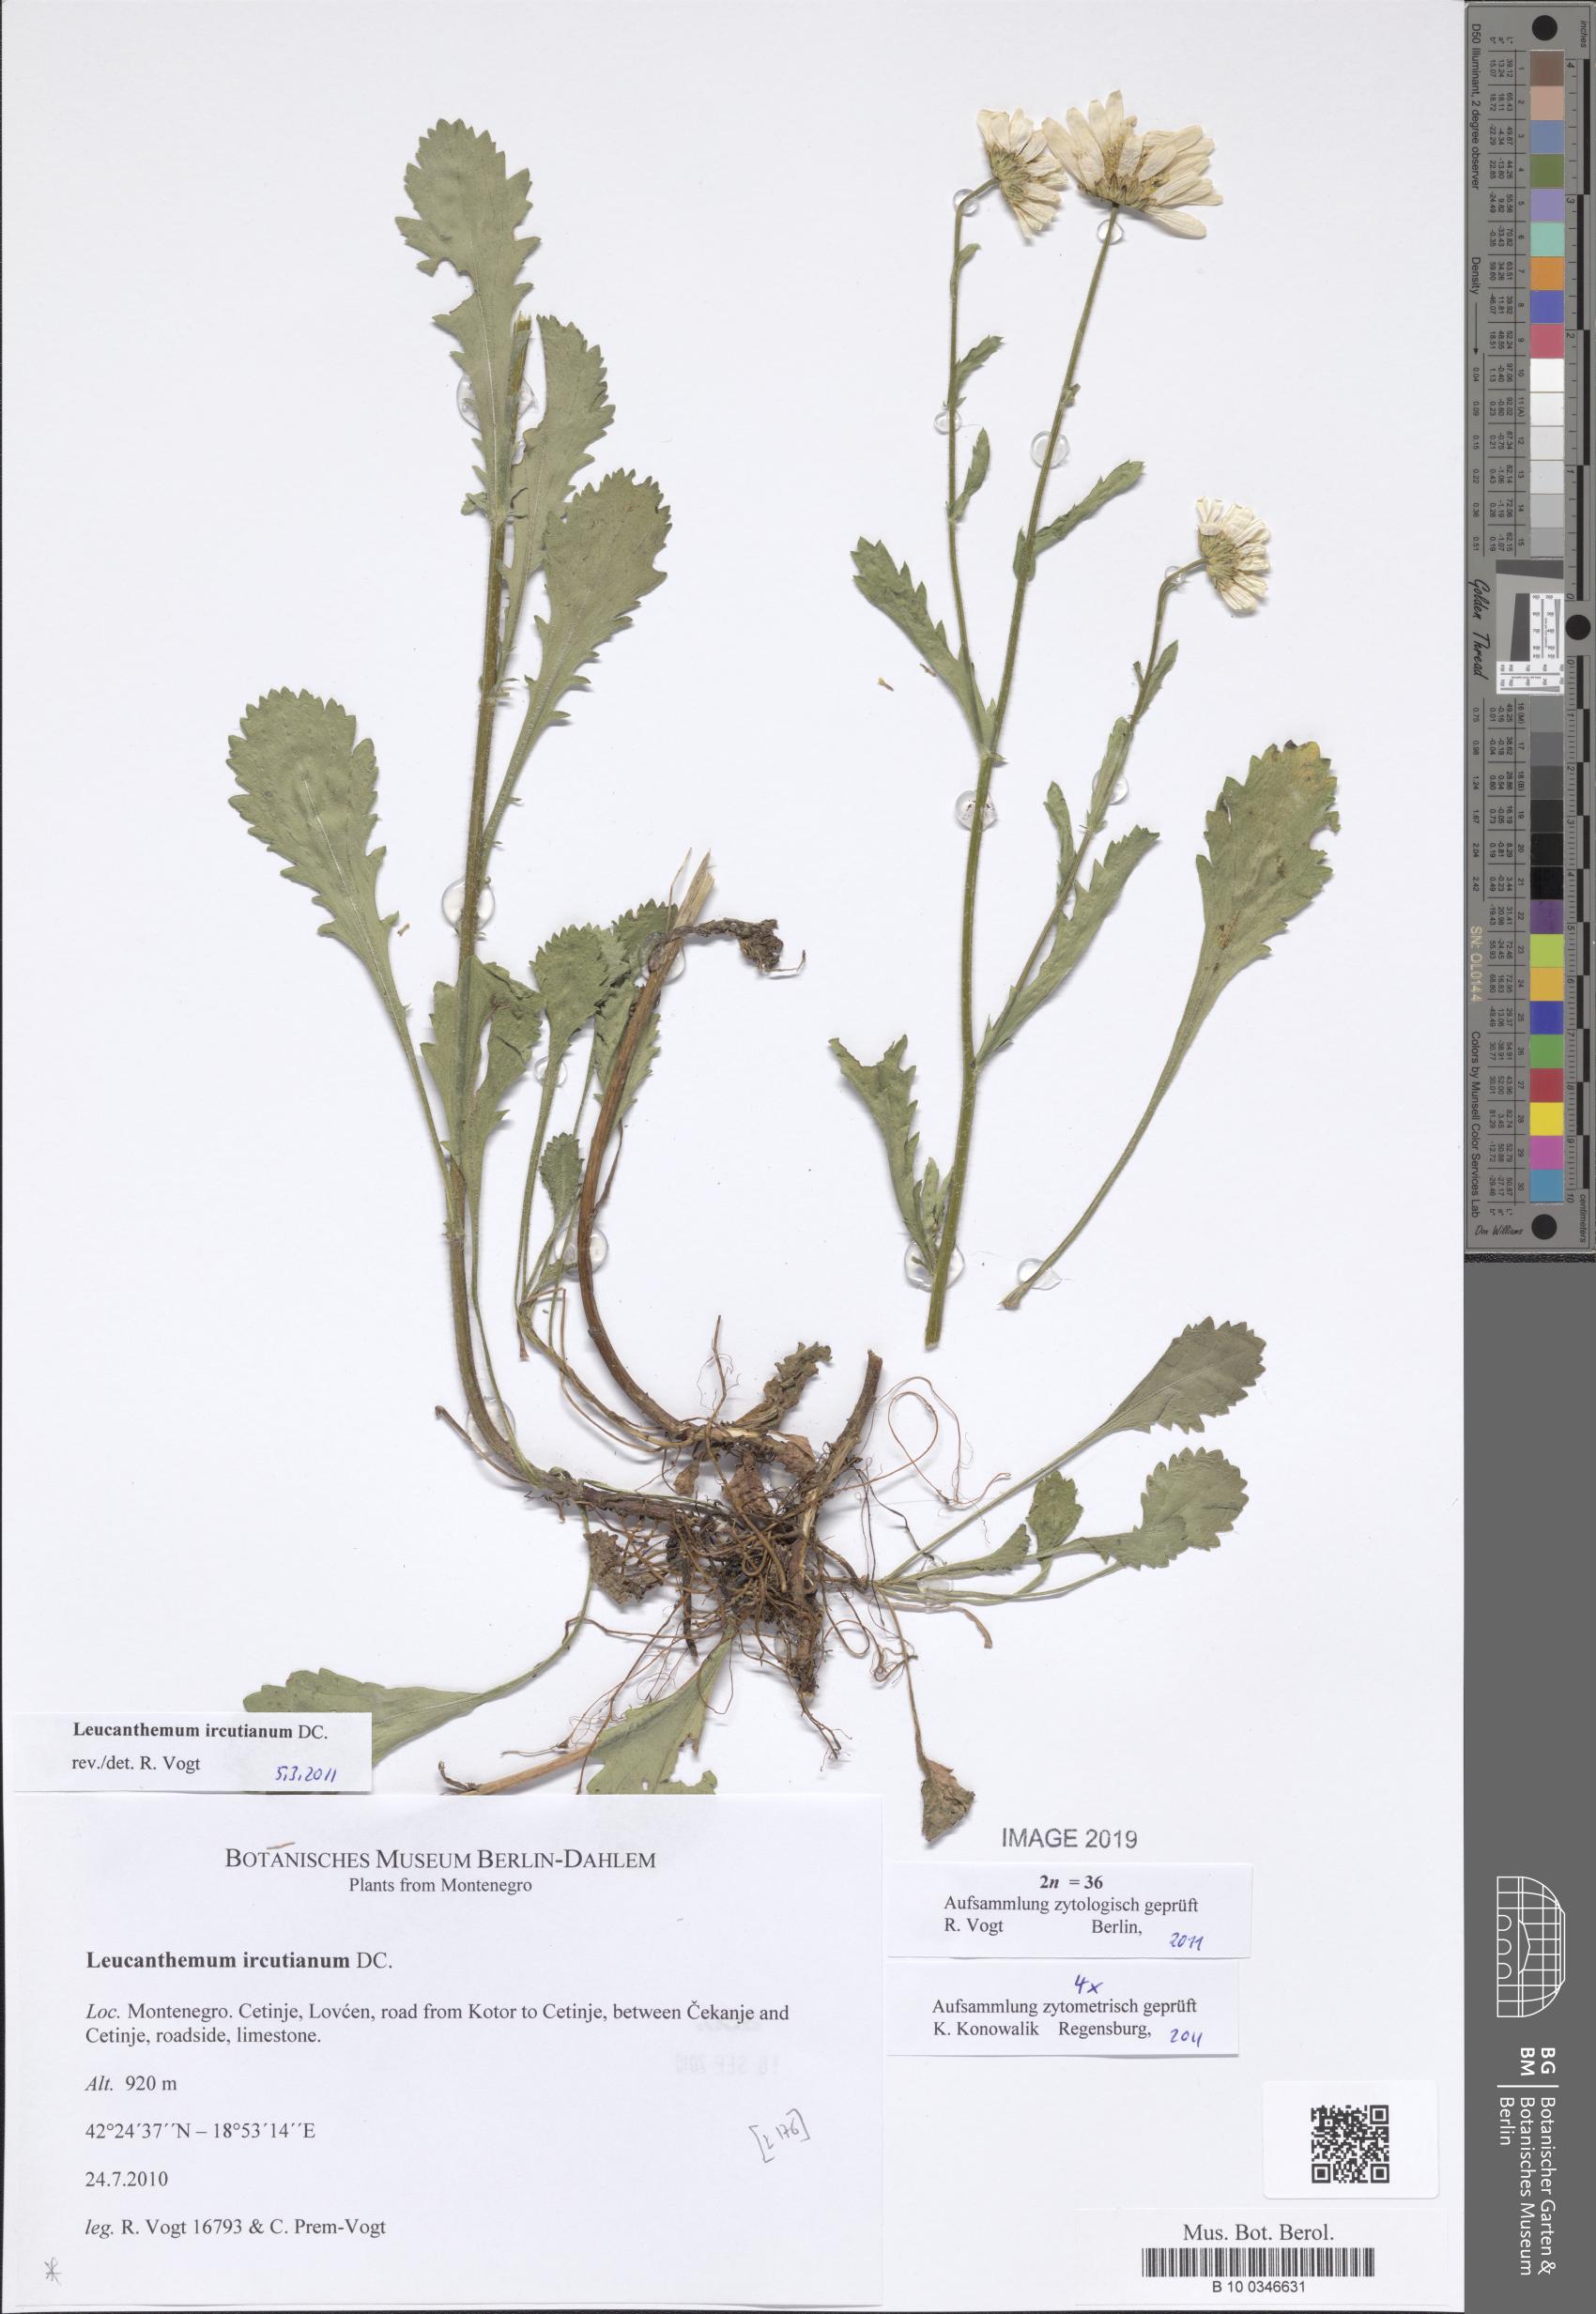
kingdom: Plantae
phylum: Tracheophyta
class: Magnoliopsida
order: Asterales
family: Asteraceae
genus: Leucanthemum
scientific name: Leucanthemum ircutianum
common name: Daisy
